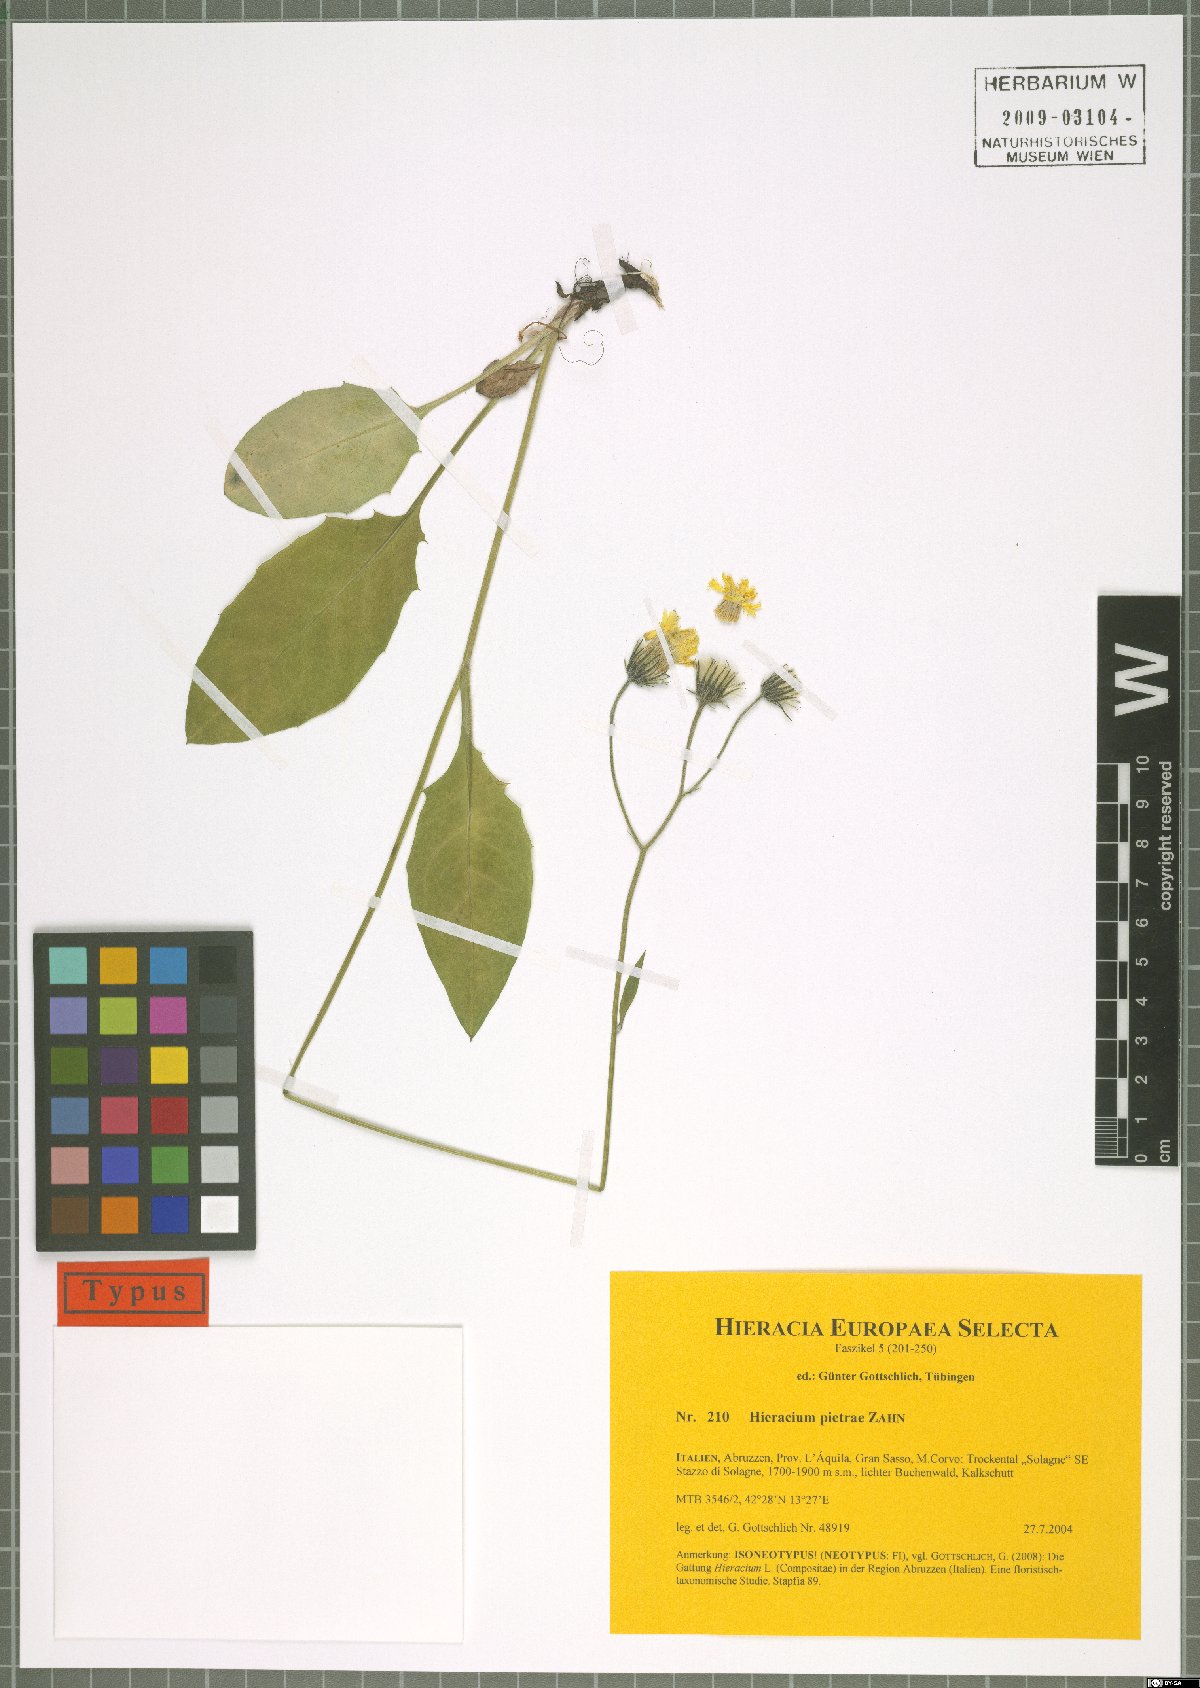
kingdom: Plantae
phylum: Tracheophyta
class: Magnoliopsida
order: Asterales
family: Asteraceae
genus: Hieracium
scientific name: Hieracium pietrae
